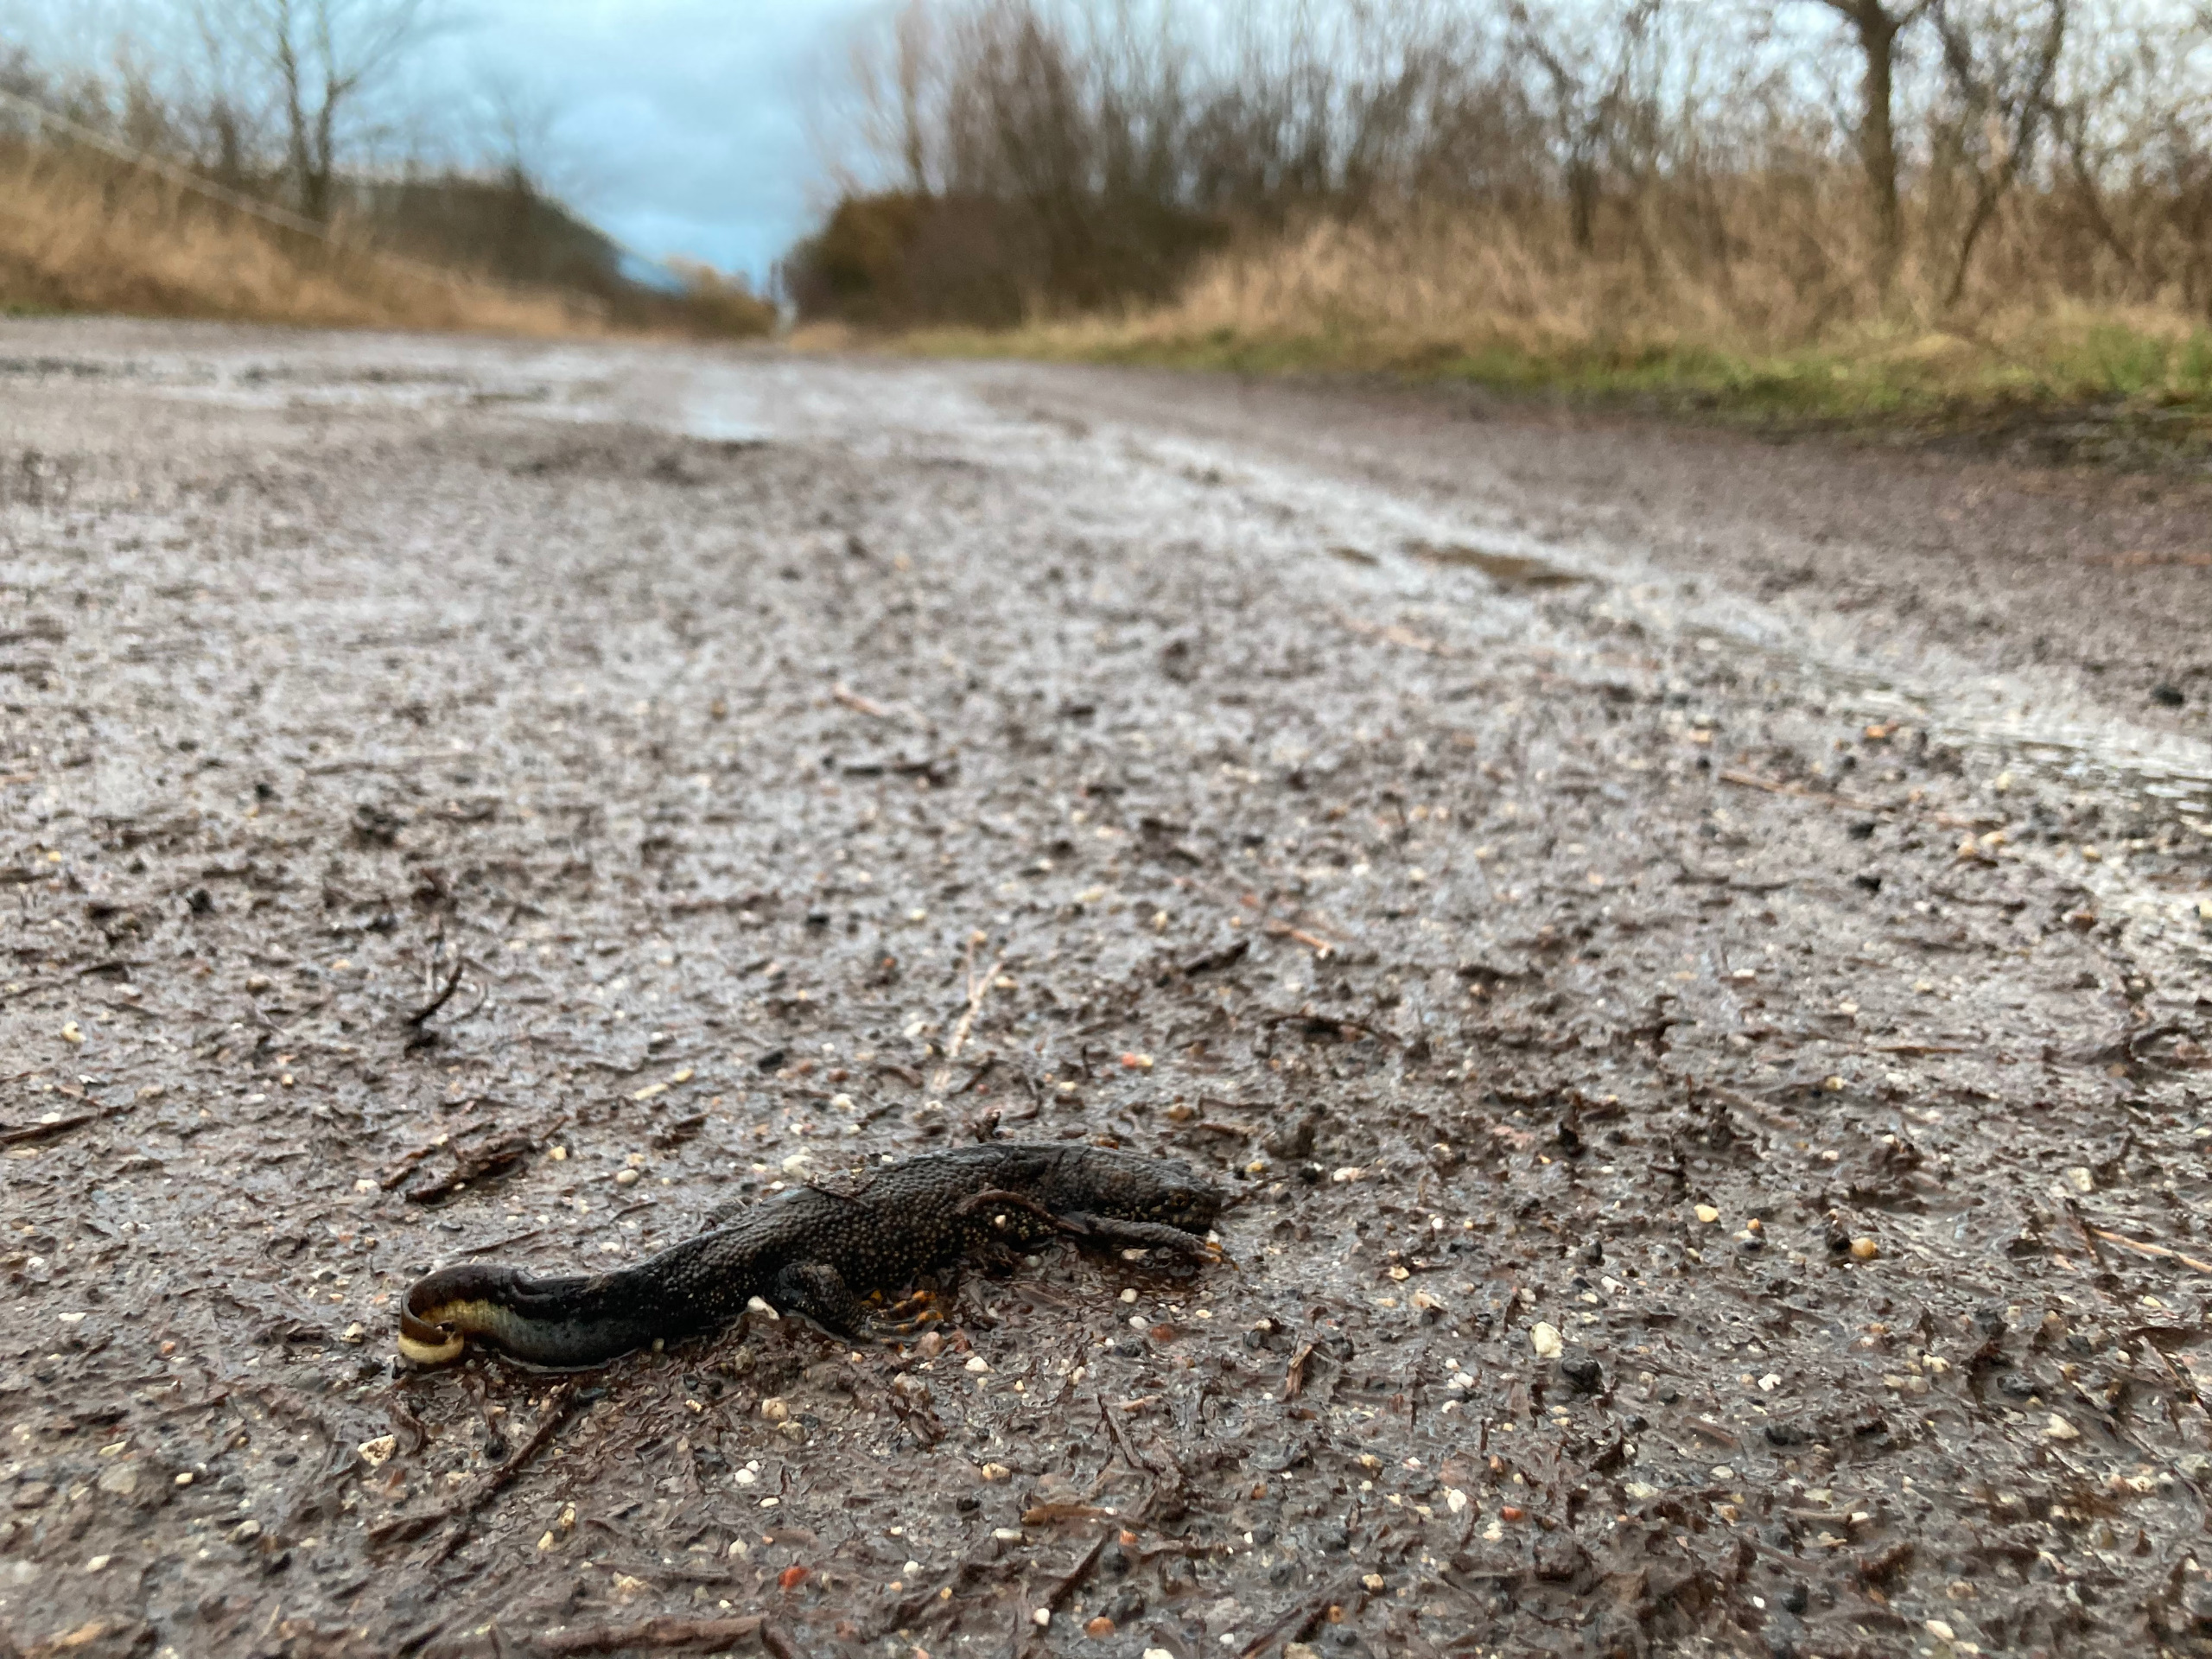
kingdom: Animalia
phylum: Chordata
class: Amphibia
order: Caudata
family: Salamandridae
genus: Triturus
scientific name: Triturus cristatus
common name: Stor vandsalamander
